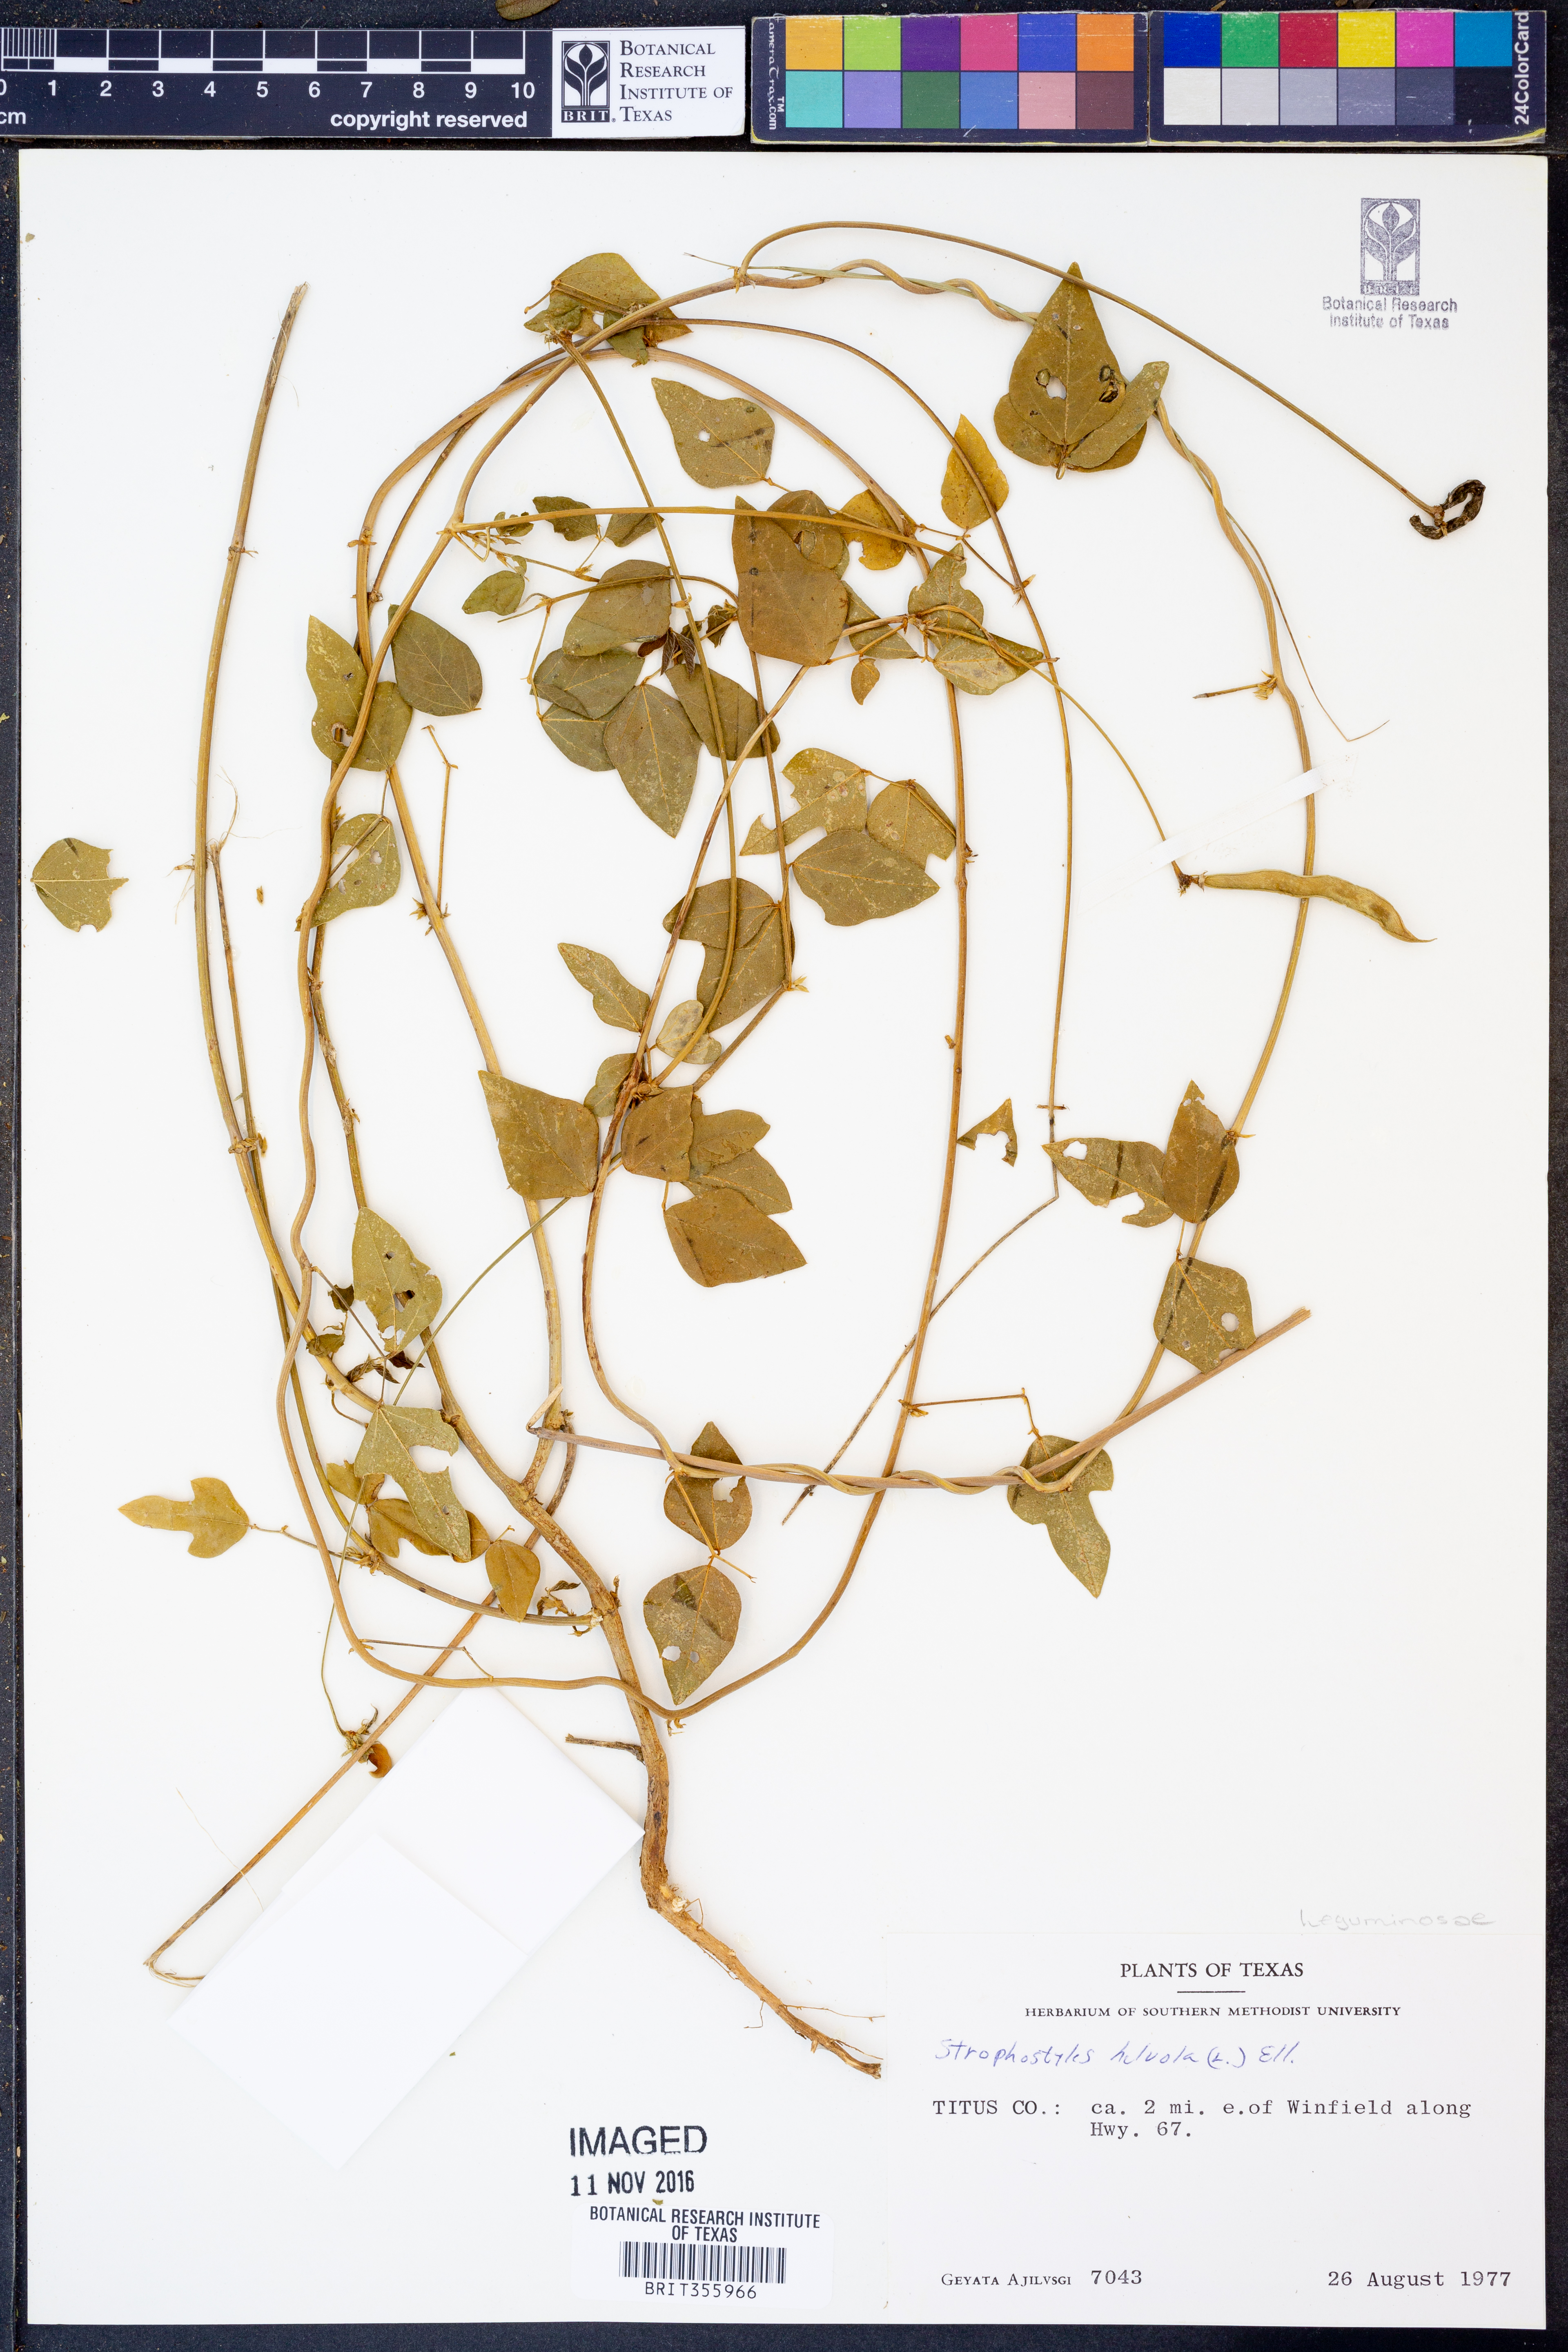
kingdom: Plantae
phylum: Tracheophyta
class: Magnoliopsida
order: Fabales
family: Fabaceae
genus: Strophostyles
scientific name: Strophostyles helvola
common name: Trailing wild bean
